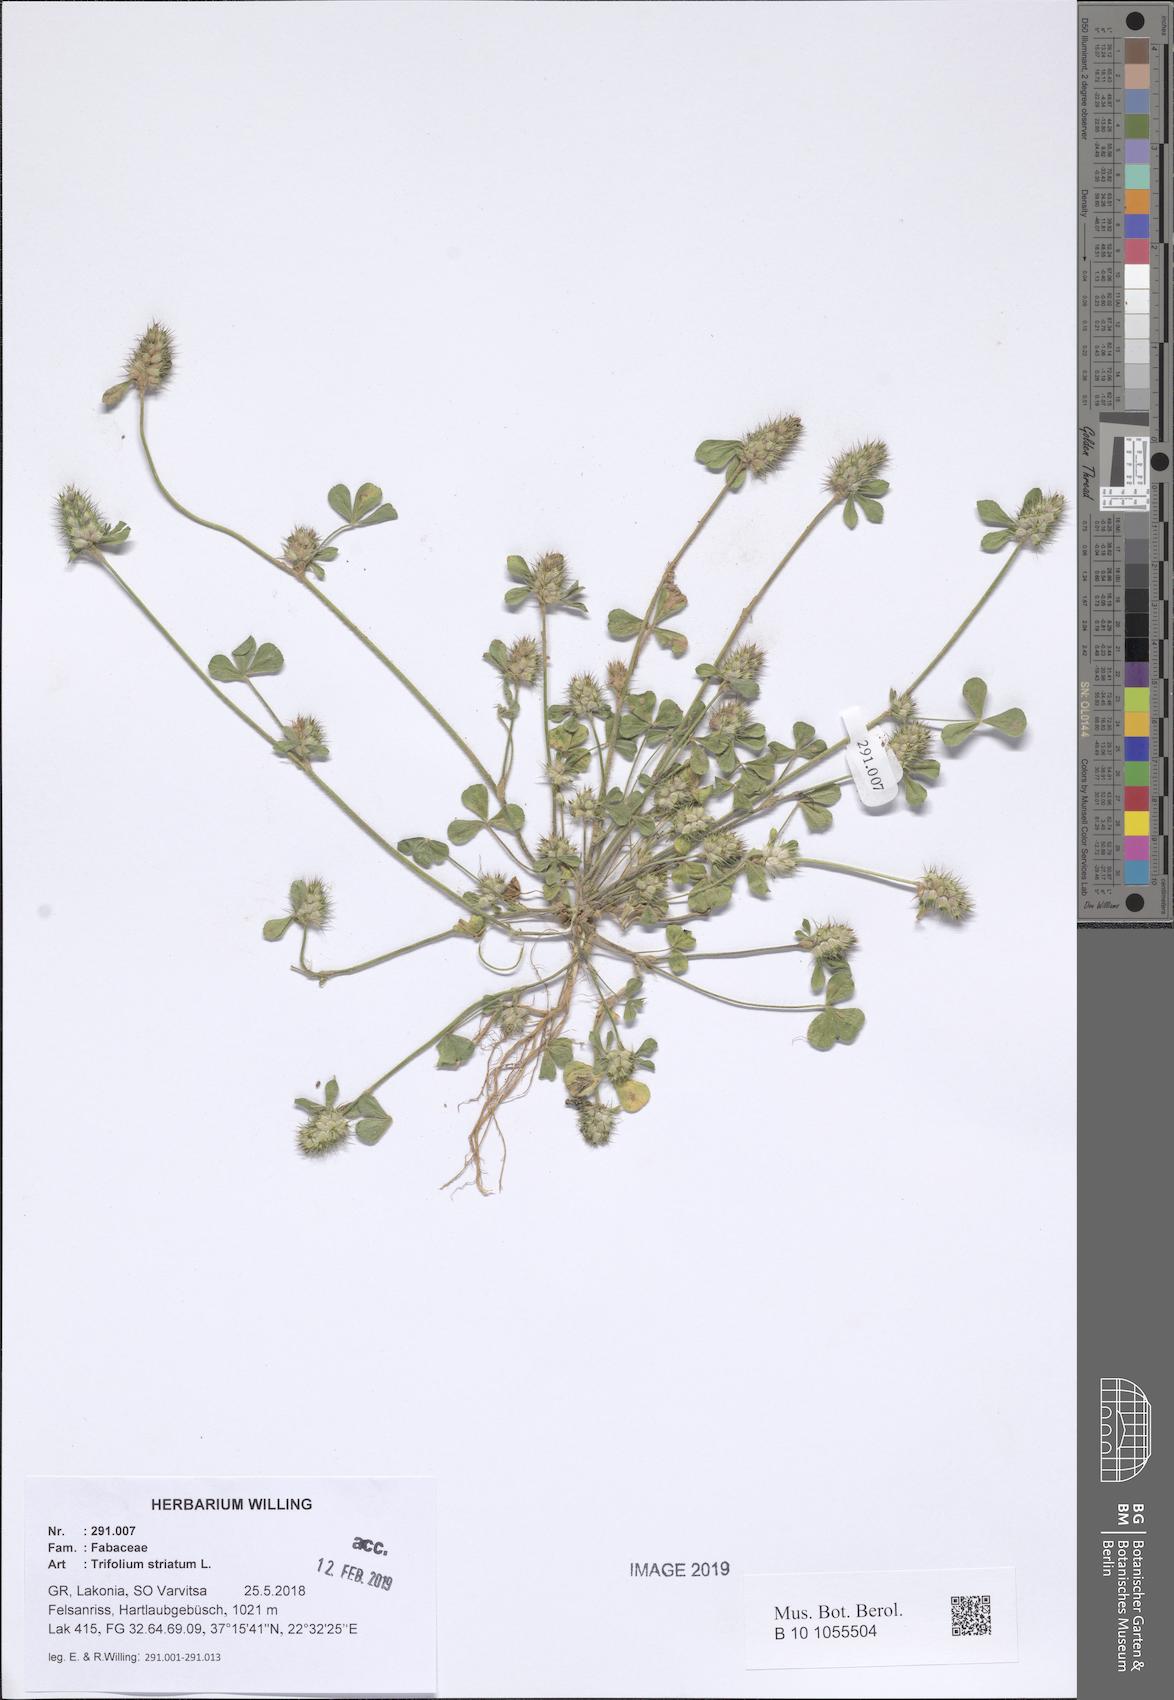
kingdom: Plantae
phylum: Tracheophyta
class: Magnoliopsida
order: Fabales
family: Fabaceae
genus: Trifolium
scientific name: Trifolium striatum
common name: Knotted clover
